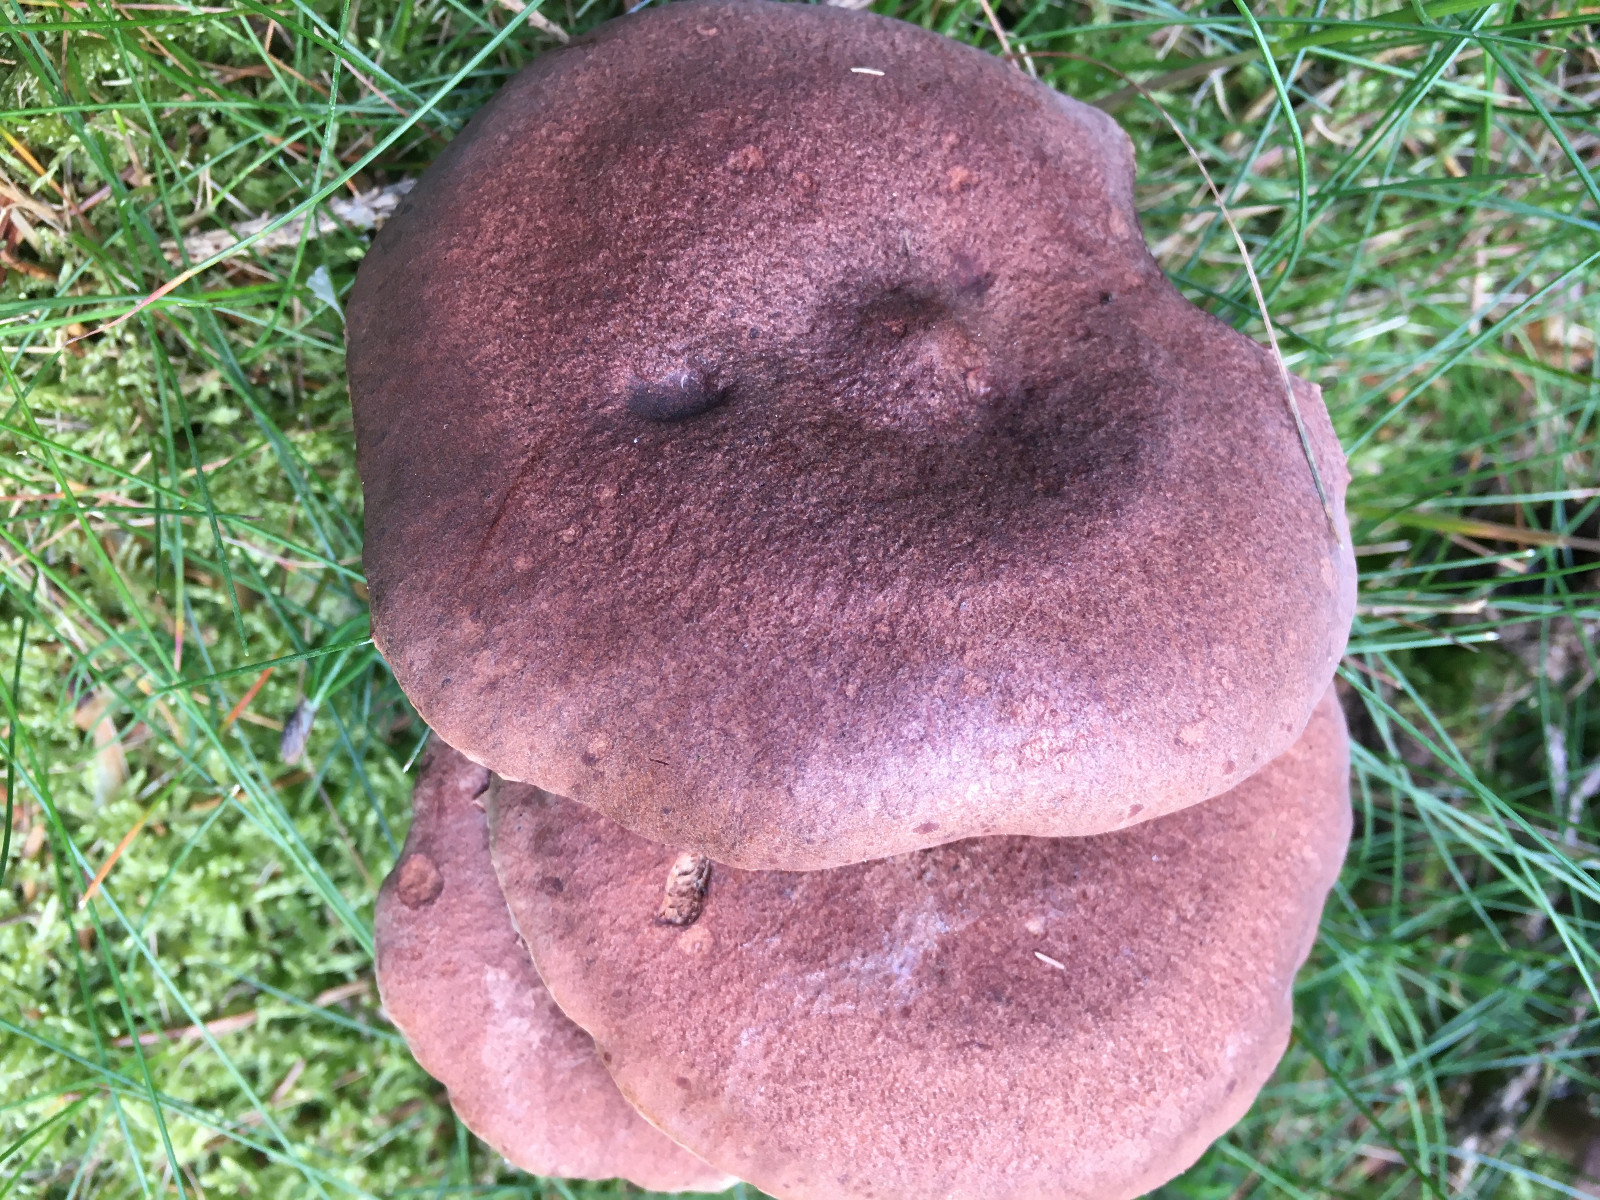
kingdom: Fungi
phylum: Basidiomycota
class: Agaricomycetes
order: Russulales
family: Russulaceae
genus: Lactarius
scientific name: Lactarius rufus
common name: rødbrun mælkehat
